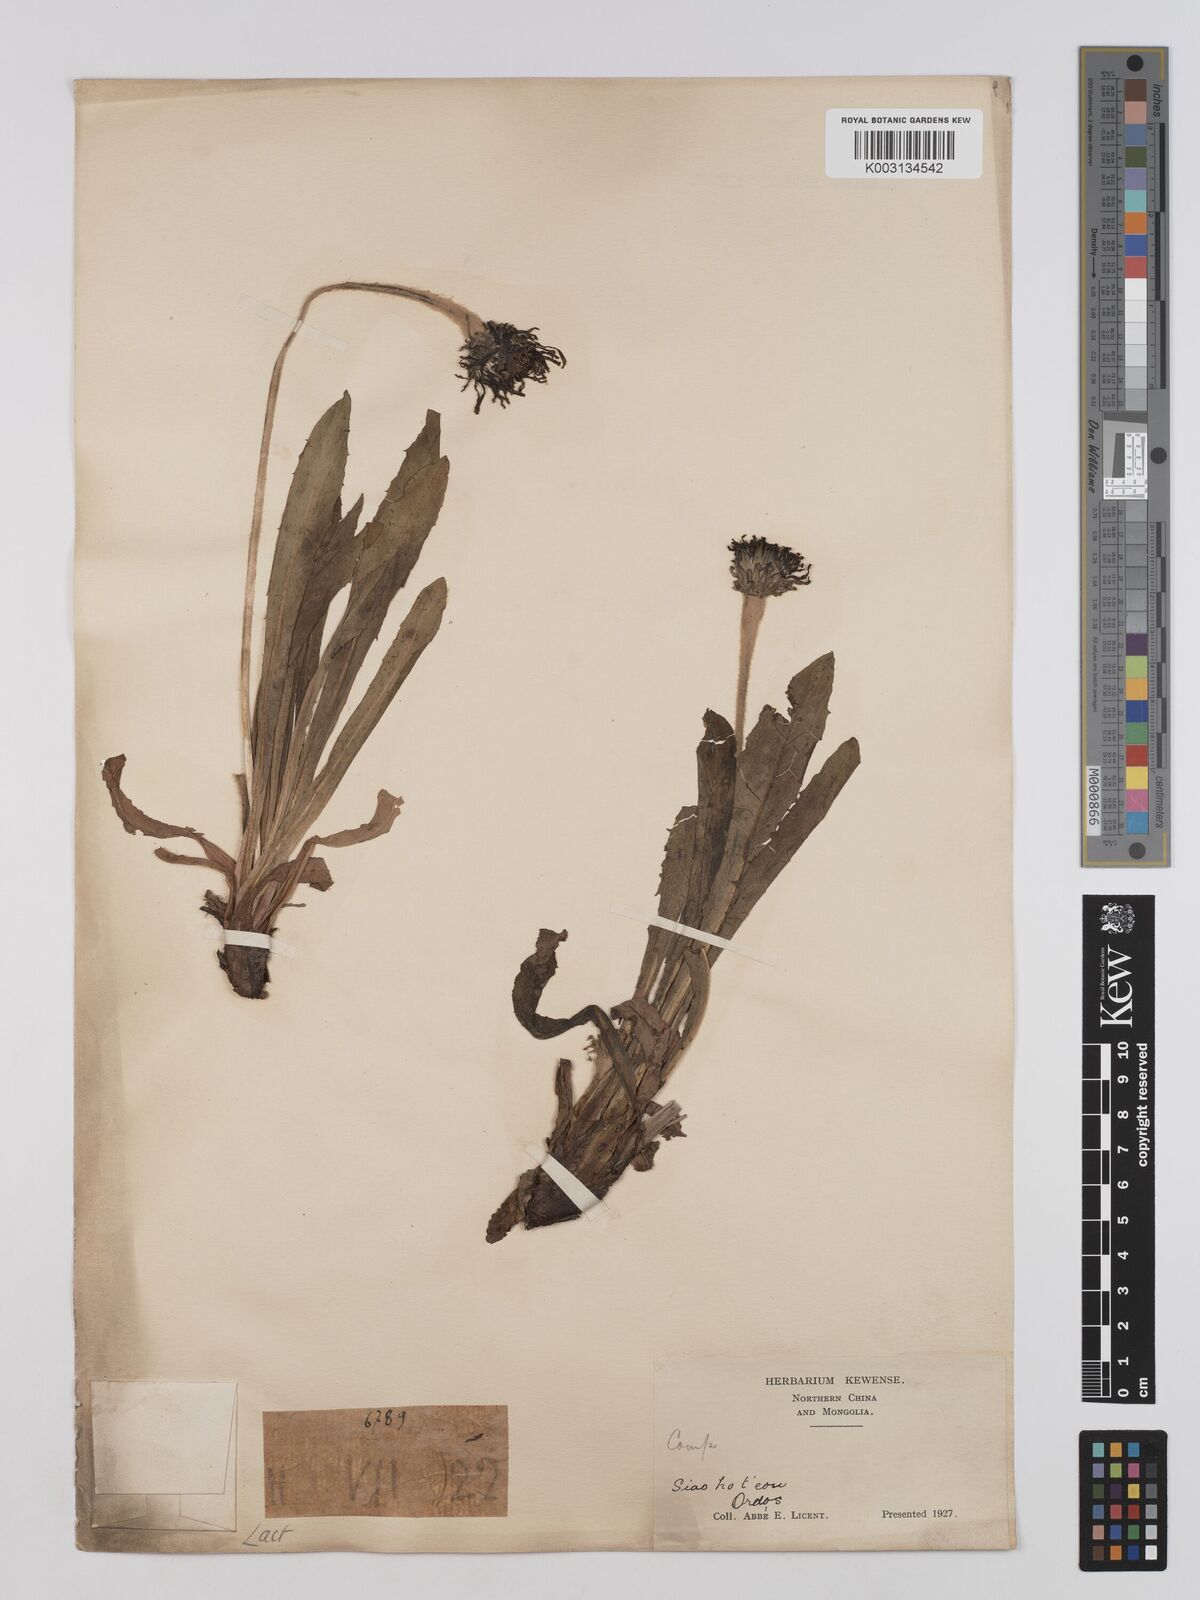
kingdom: Plantae
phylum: Tracheophyta
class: Magnoliopsida
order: Asterales
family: Asteraceae
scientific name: Asteraceae
